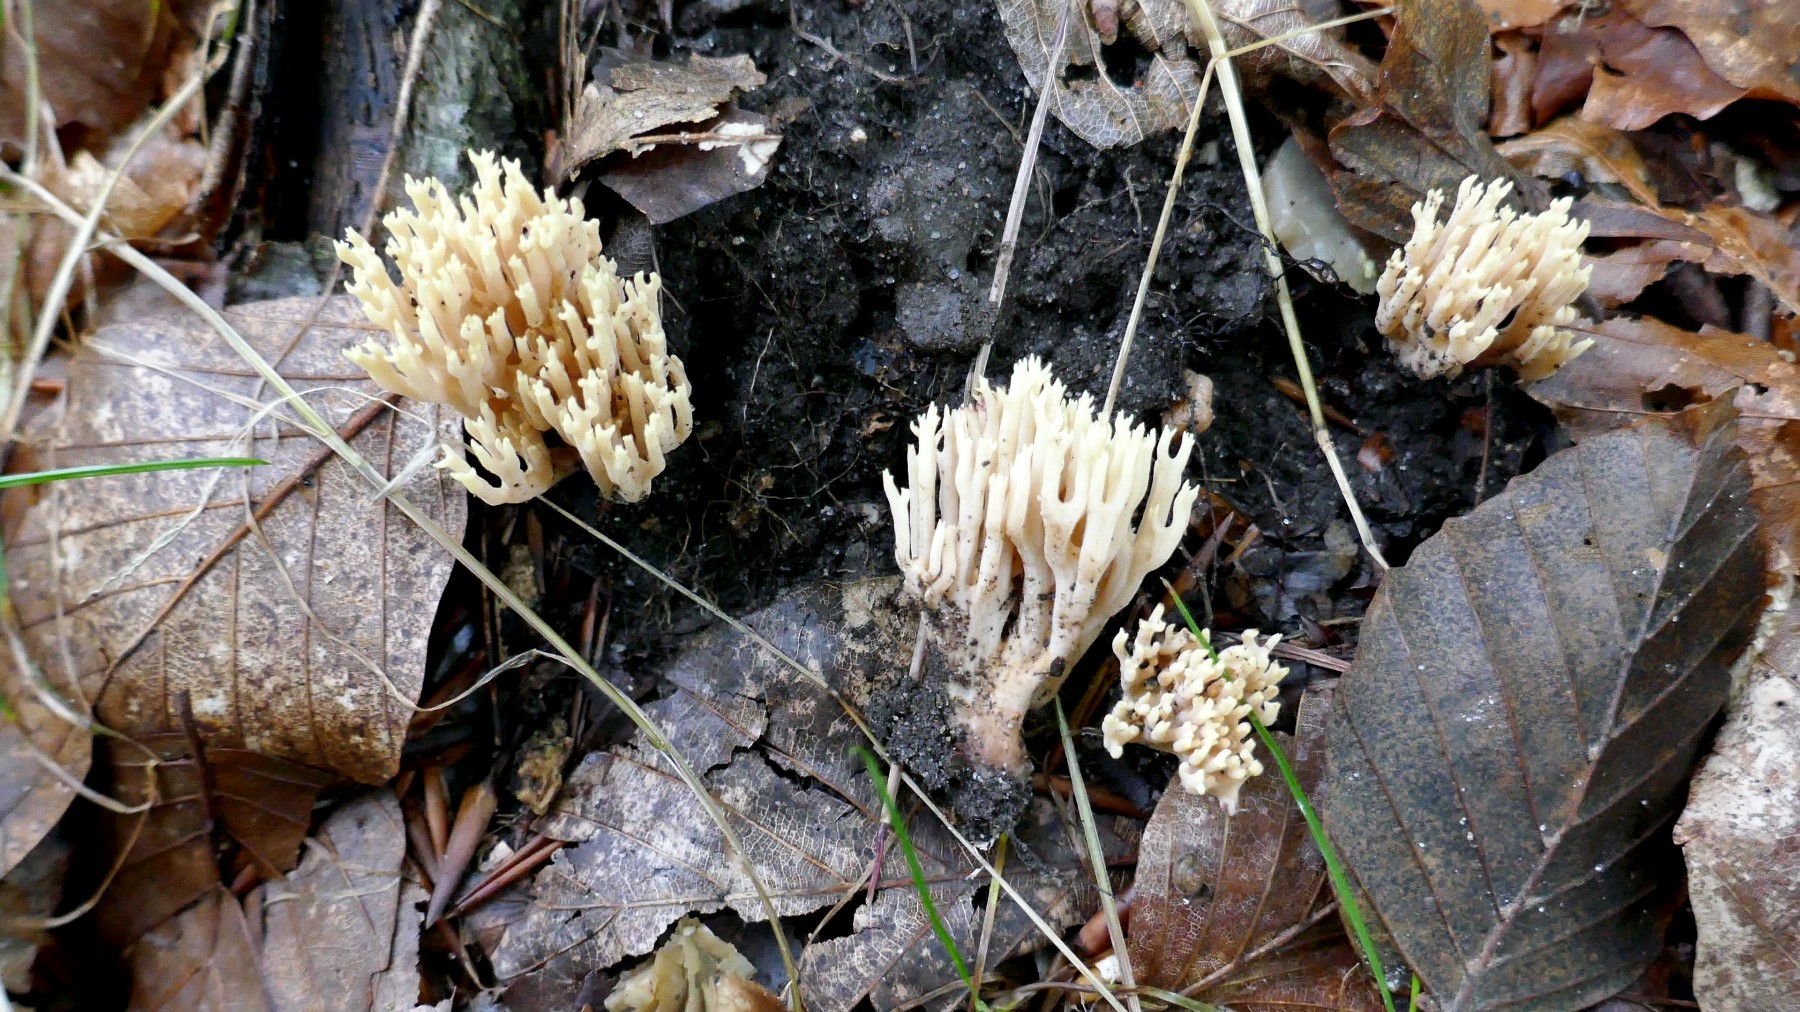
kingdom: Fungi
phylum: Basidiomycota
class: Agaricomycetes
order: Gomphales
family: Gomphaceae
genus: Ramaria
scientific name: Ramaria stricta
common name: rank koralsvamp
